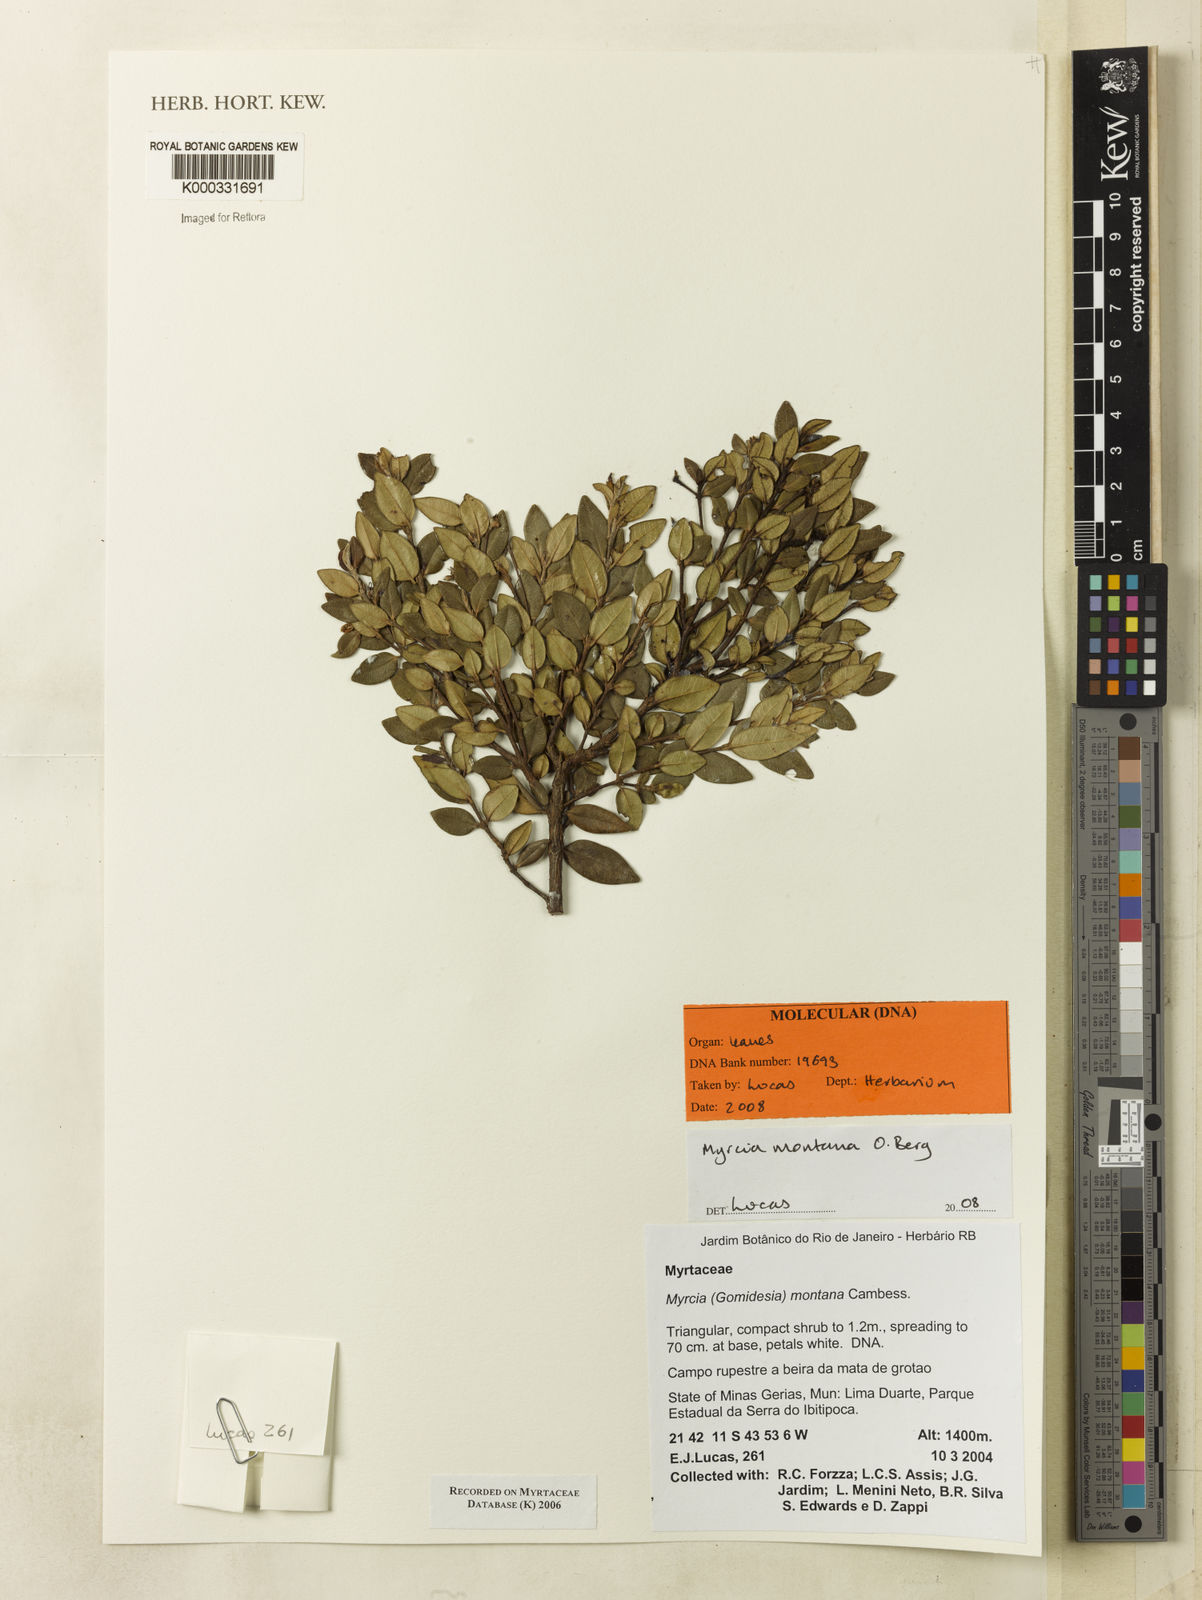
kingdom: Plantae
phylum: Tracheophyta
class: Magnoliopsida
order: Myrtales
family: Myrtaceae
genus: Myrcia
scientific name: Myrcia montana
